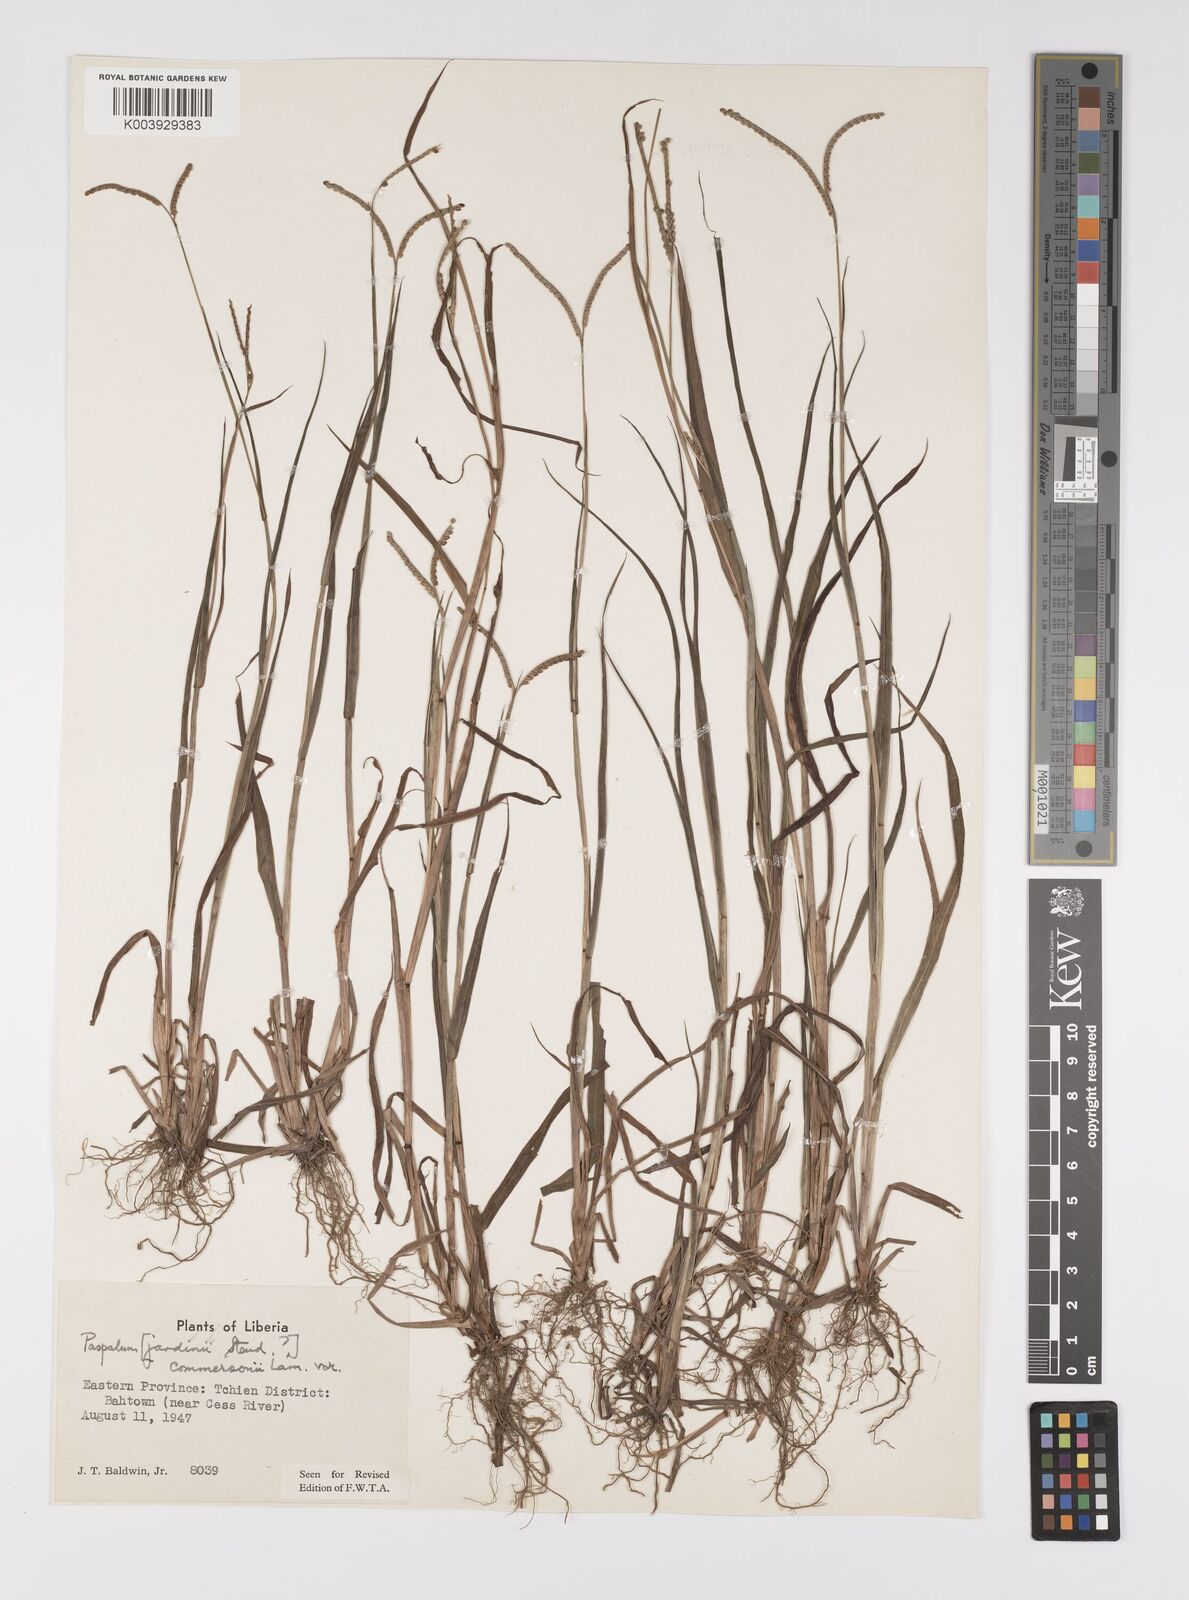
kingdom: Plantae
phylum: Tracheophyta
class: Liliopsida
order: Poales
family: Poaceae
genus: Paspalum
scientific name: Paspalum scrobiculatum
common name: Kodo millet
